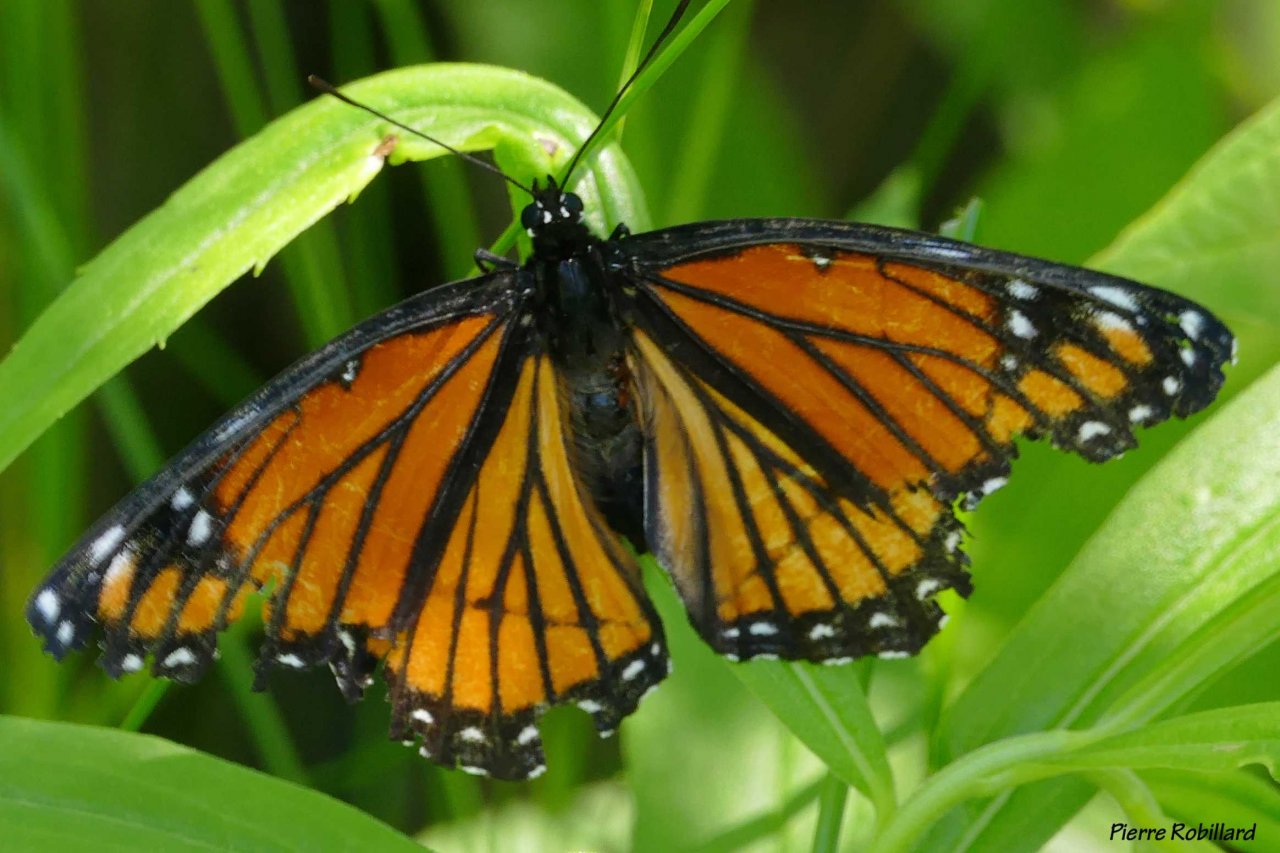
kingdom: Animalia
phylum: Arthropoda
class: Insecta
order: Lepidoptera
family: Nymphalidae
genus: Limenitis
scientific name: Limenitis archippus
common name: Viceroy
